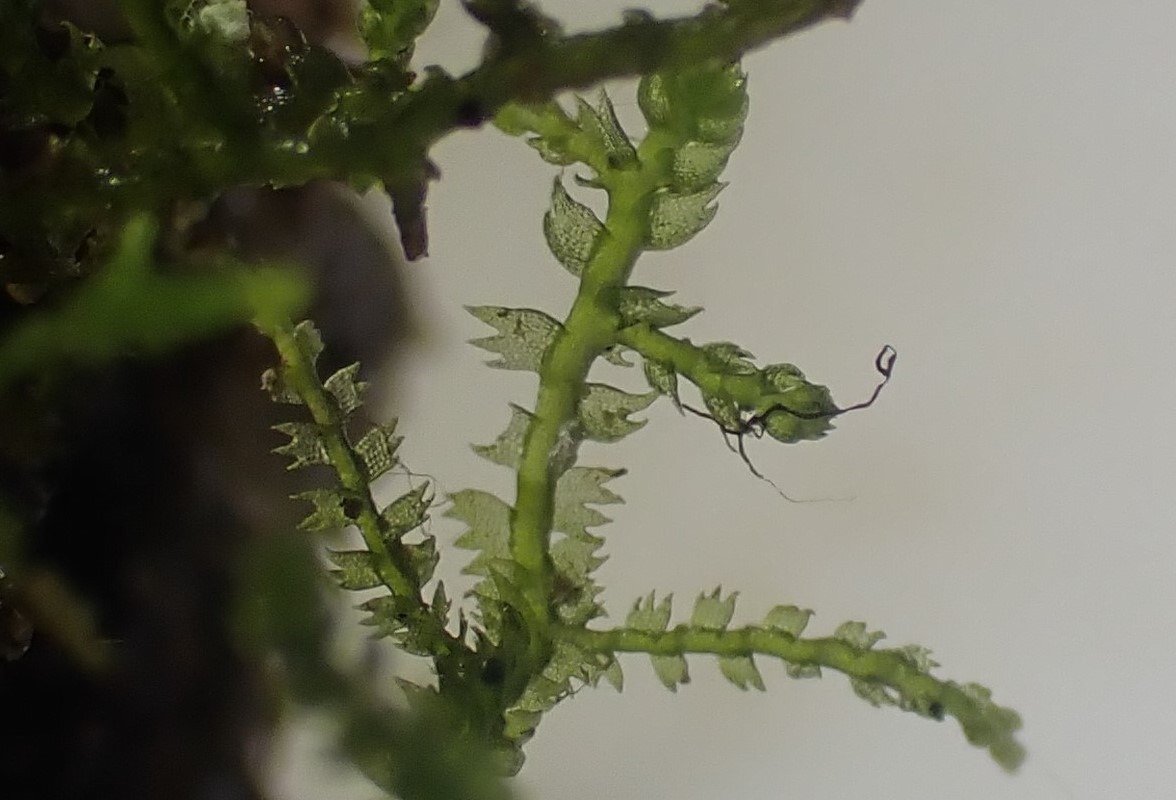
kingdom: Plantae
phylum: Marchantiophyta
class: Jungermanniopsida
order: Jungermanniales
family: Lepidoziaceae
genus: Lepidozia
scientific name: Lepidozia reptans
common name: Krybende fingermos
